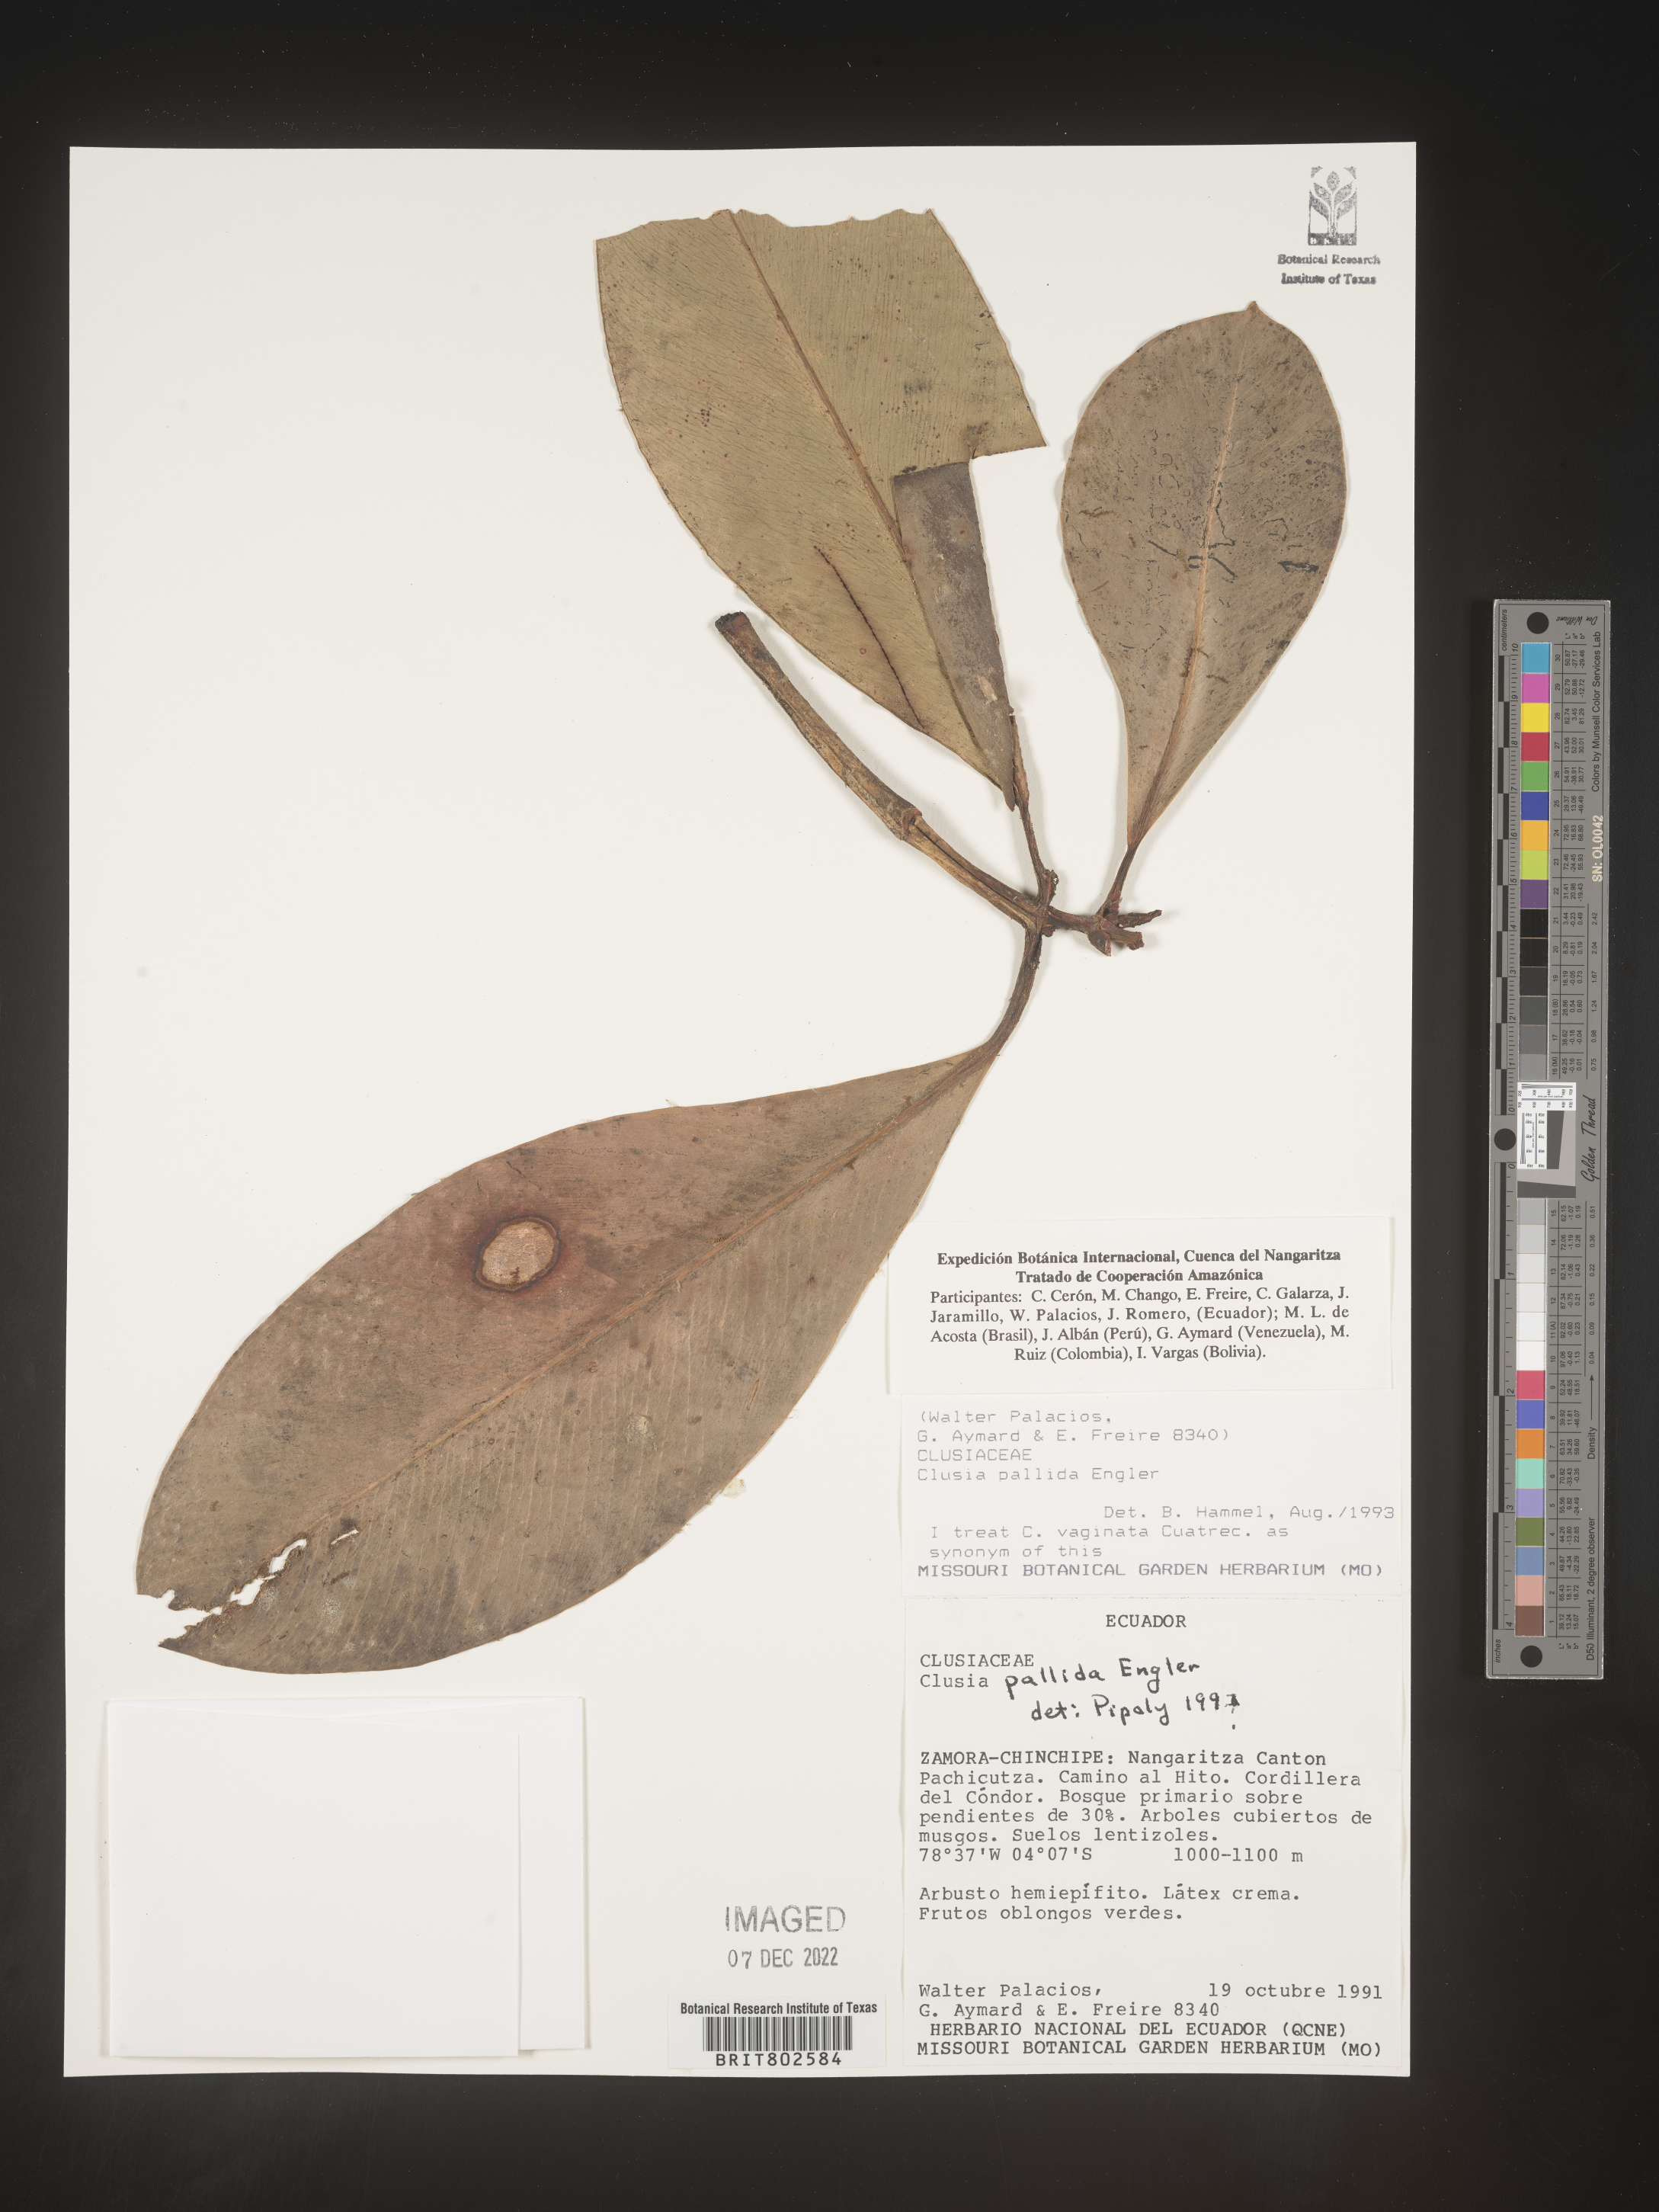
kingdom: Plantae
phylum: Tracheophyta
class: Magnoliopsida
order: Malpighiales
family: Clusiaceae
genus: Clusia
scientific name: Clusia pallida
